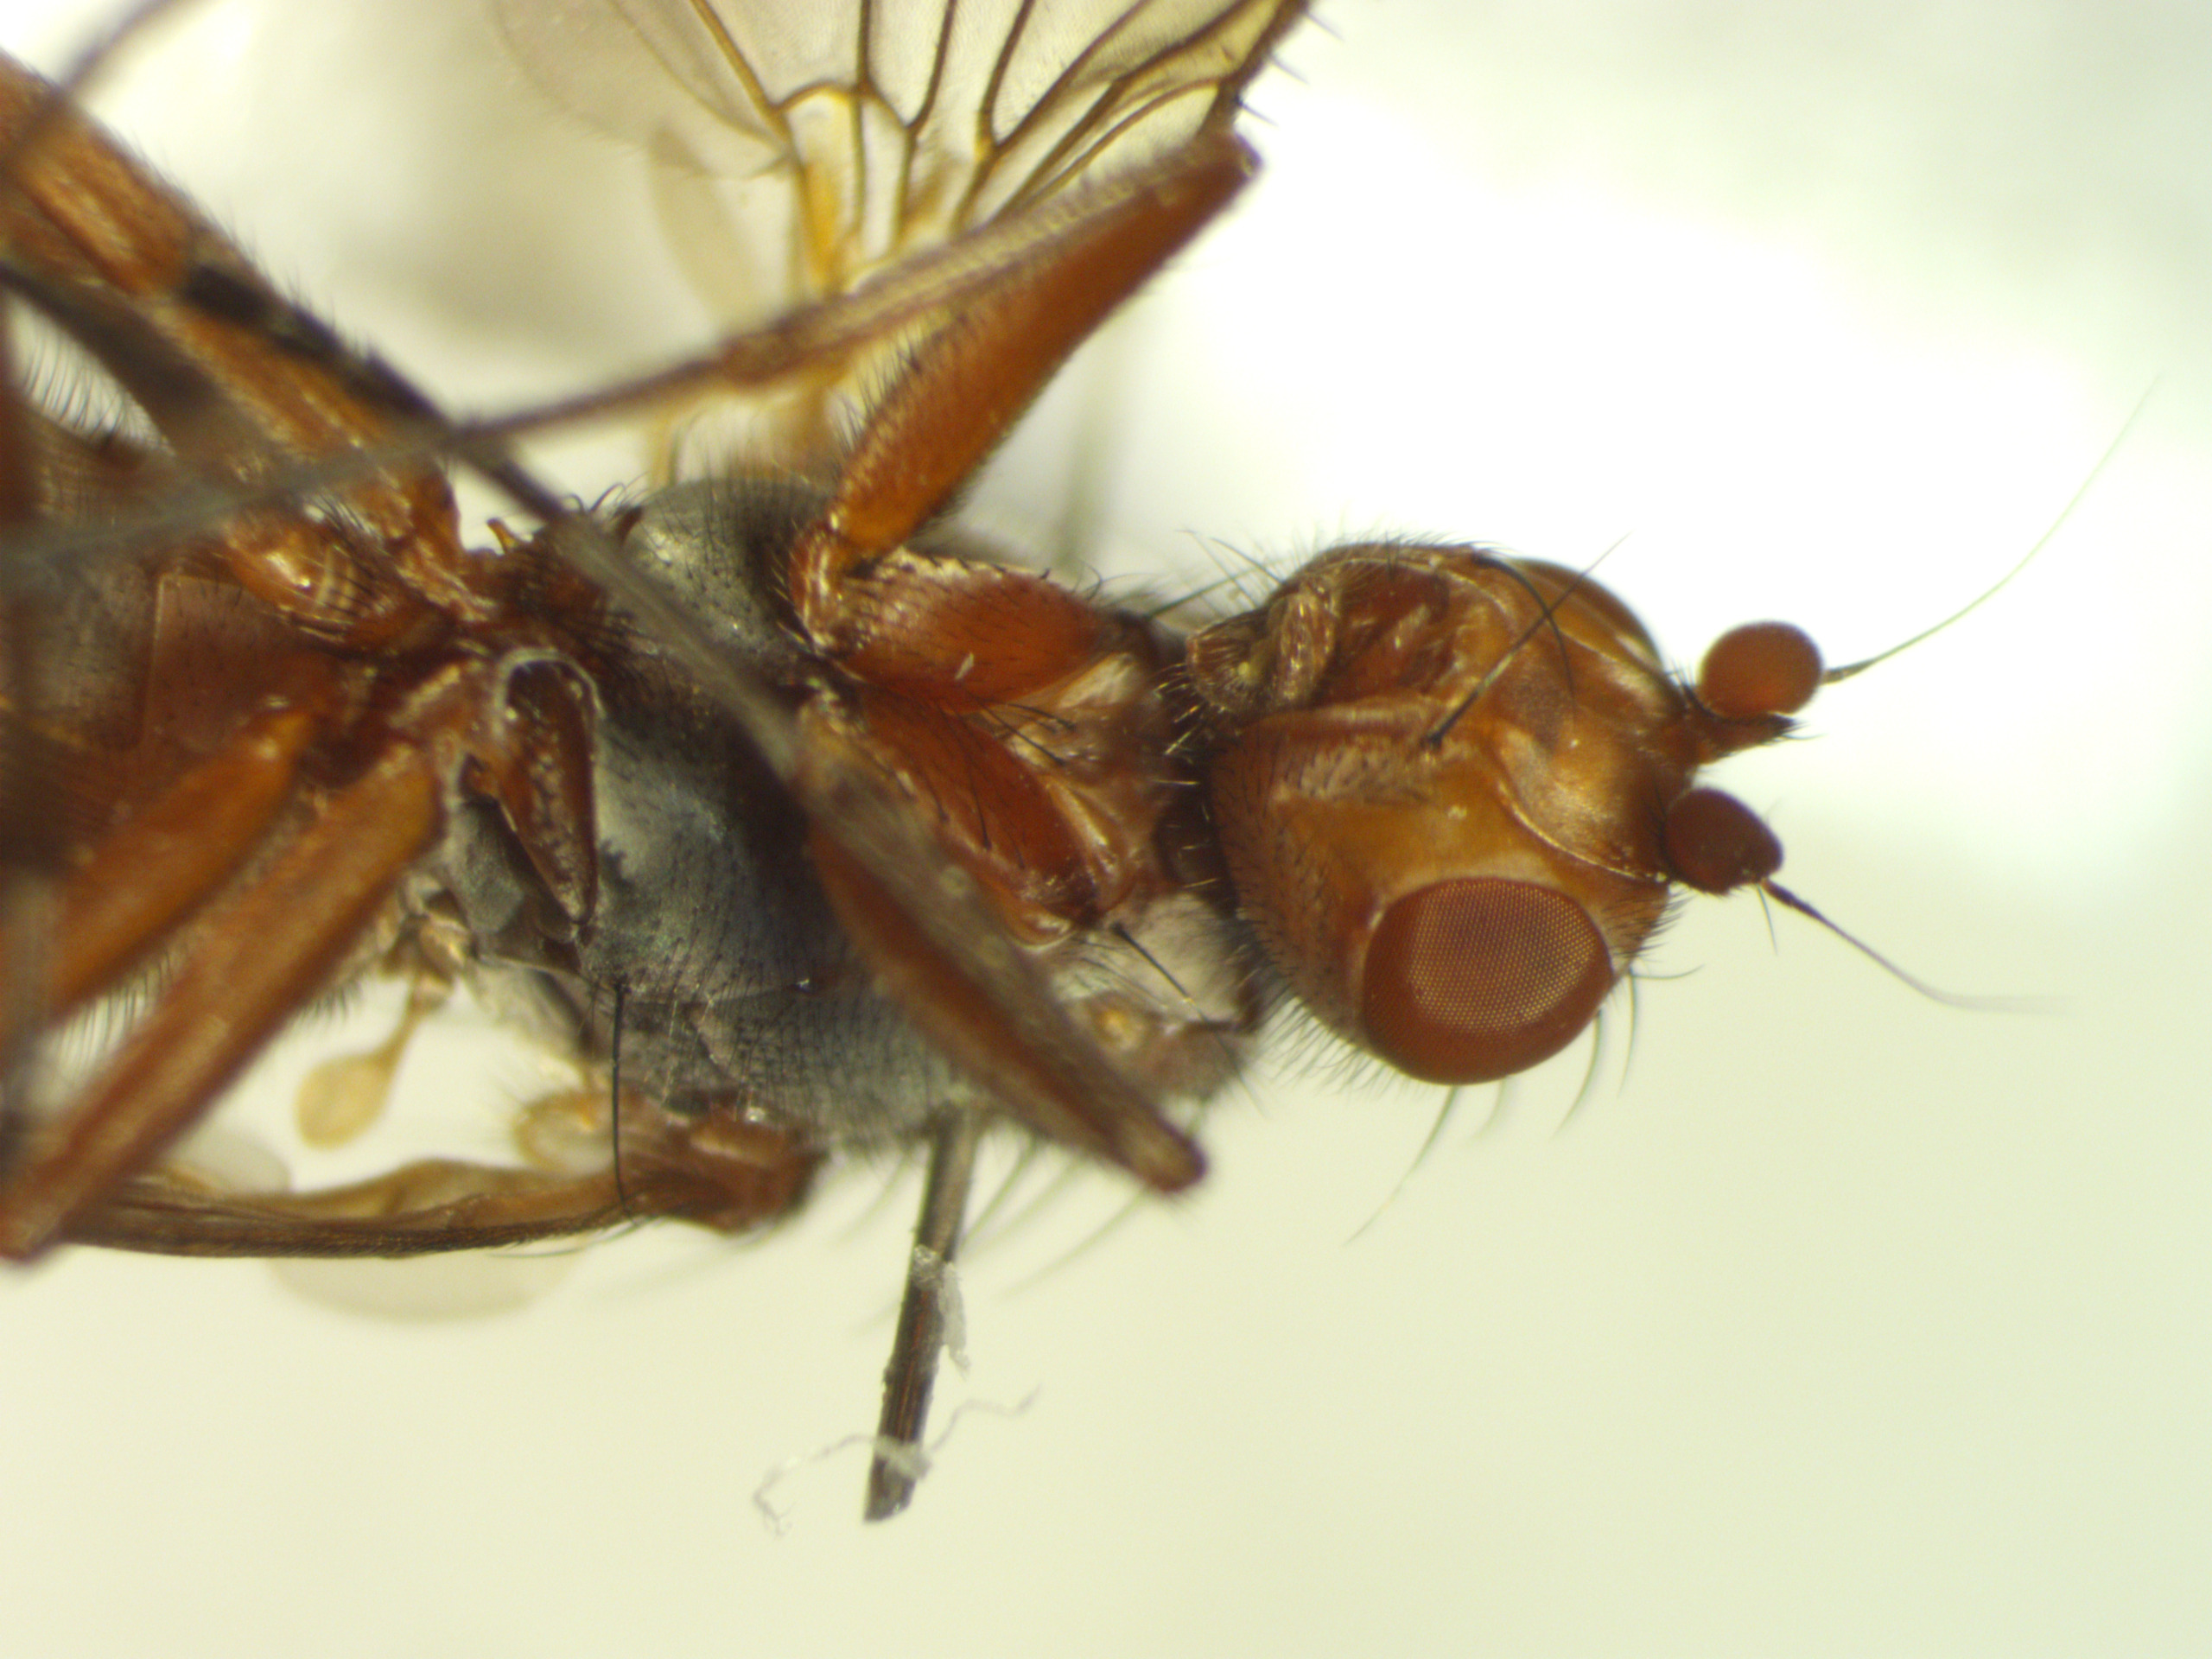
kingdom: Animalia
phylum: Arthropoda
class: Insecta
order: Diptera
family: Heleomyzidae
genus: Scoliocentra
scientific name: Scoliocentra villosa
